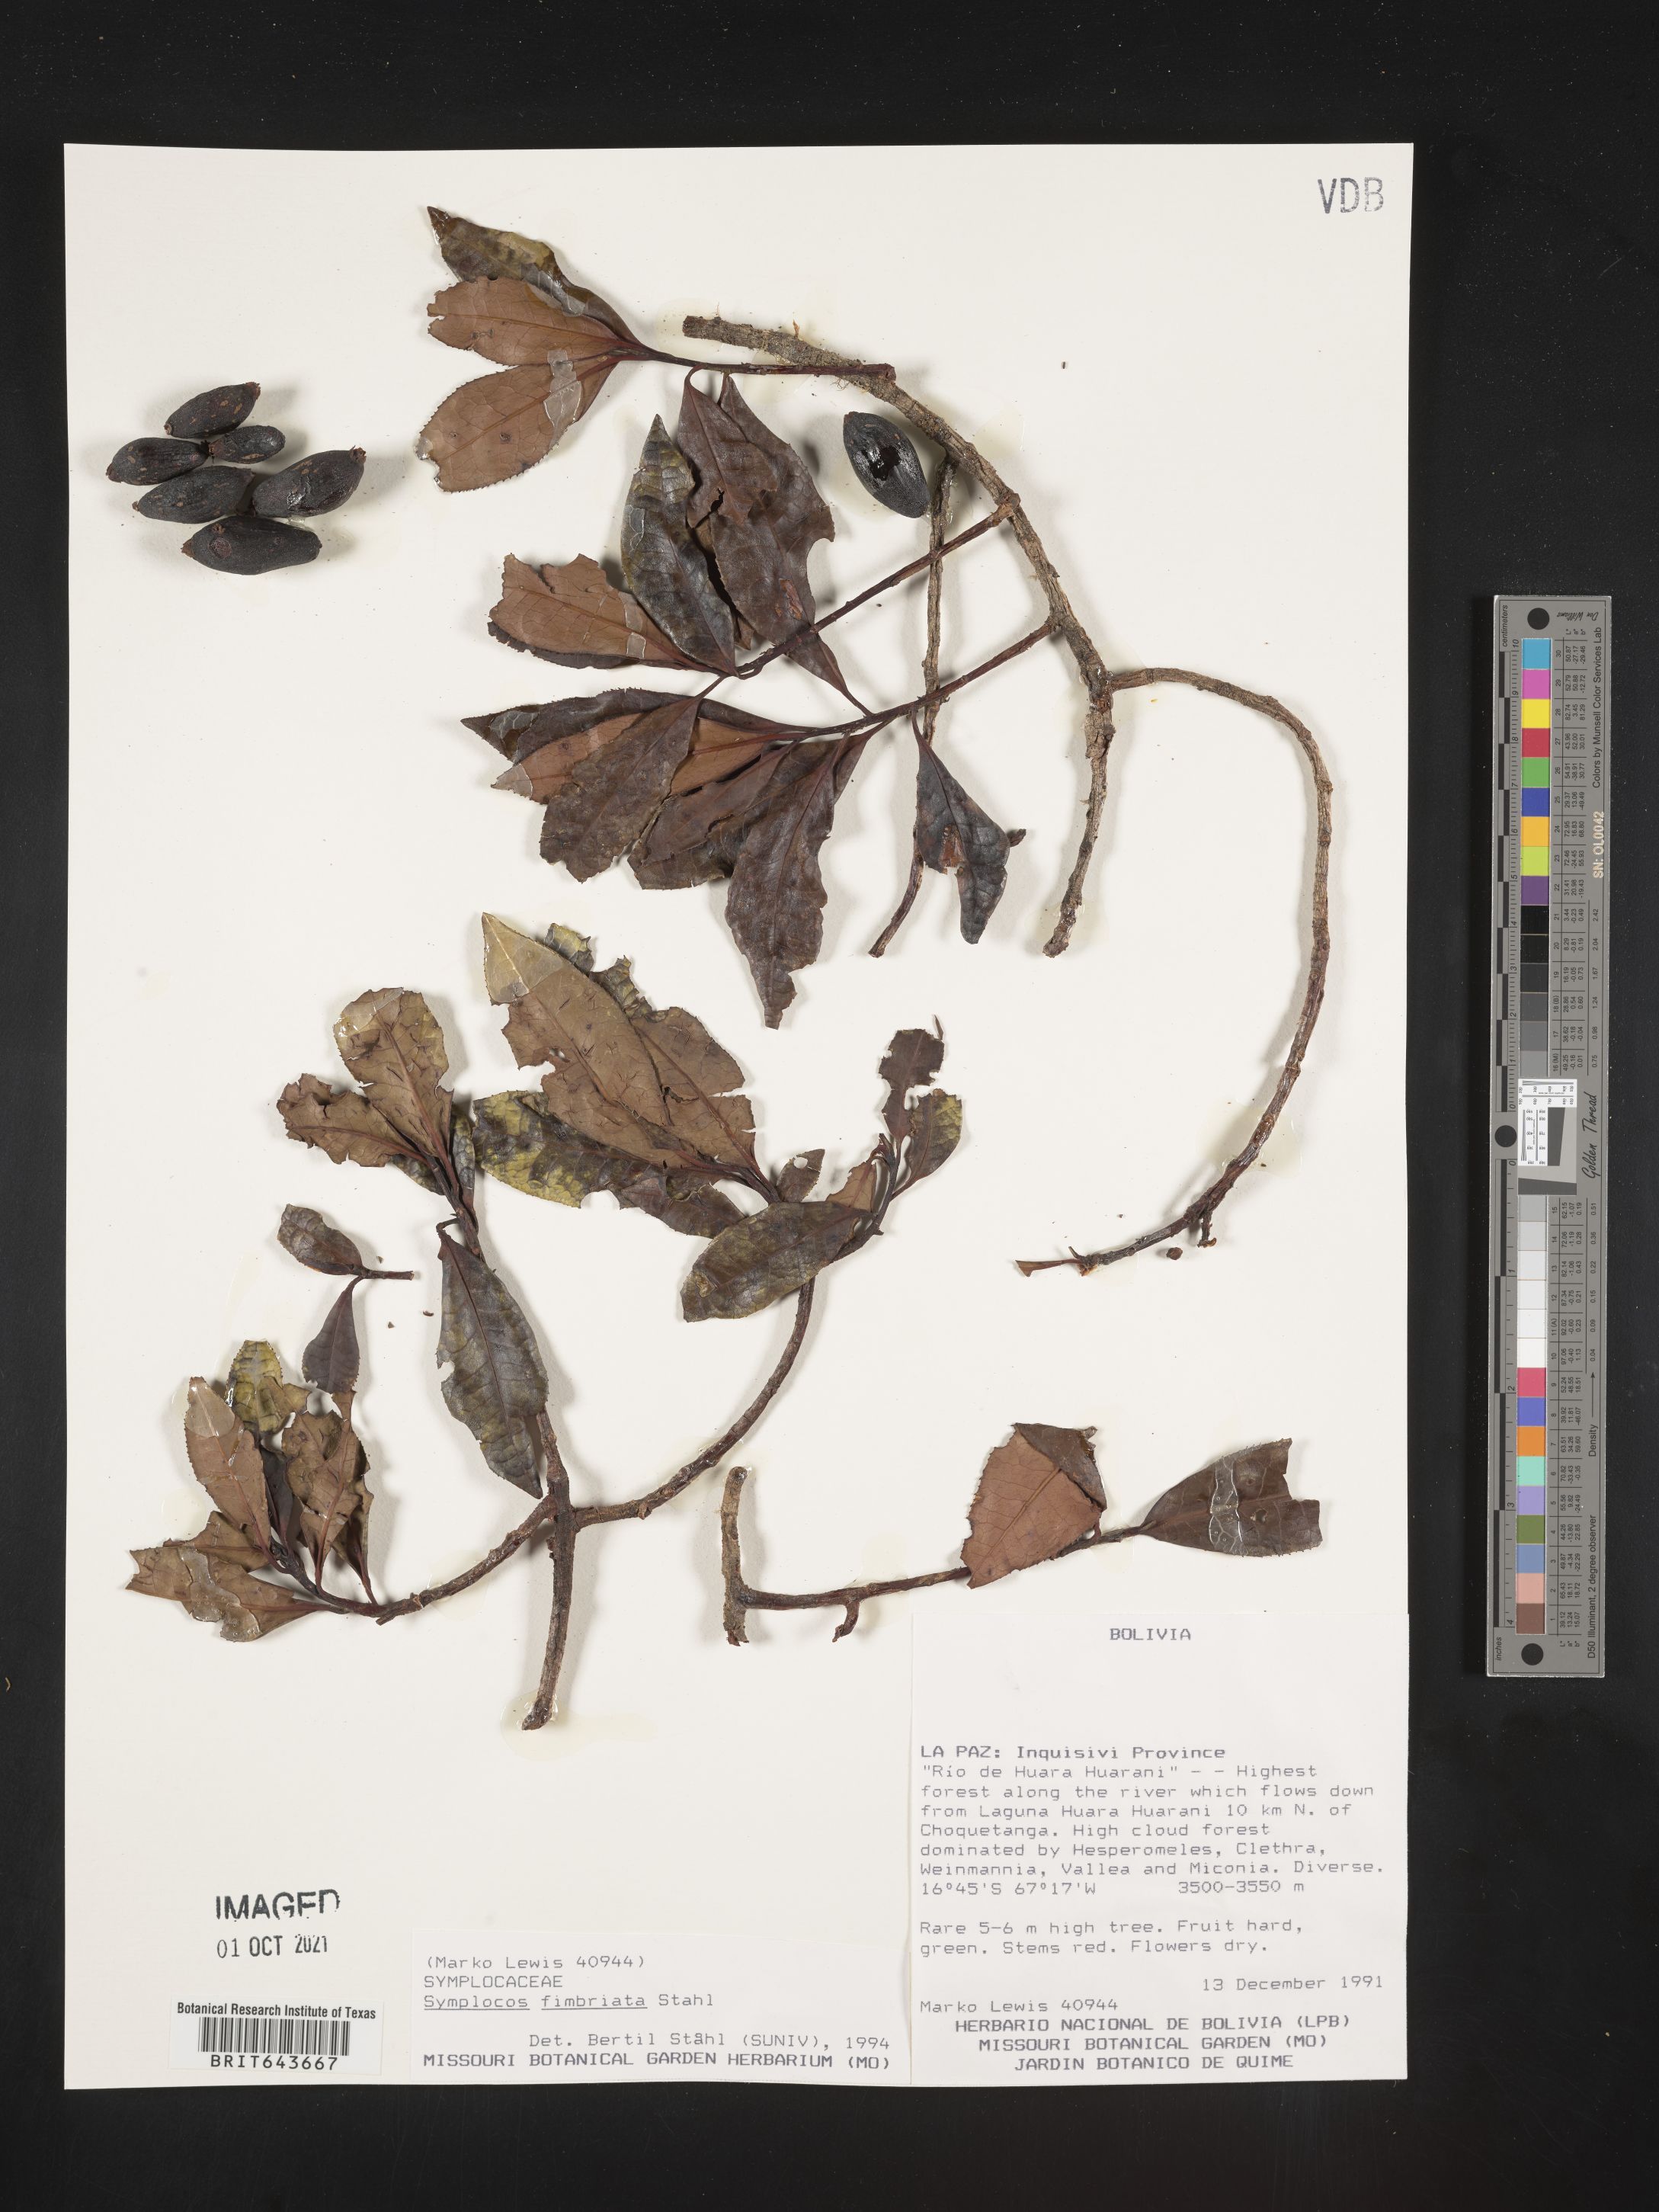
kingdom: Plantae
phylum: Tracheophyta
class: Magnoliopsida
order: Ericales
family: Symplocaceae
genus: Symplocos
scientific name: Symplocos
